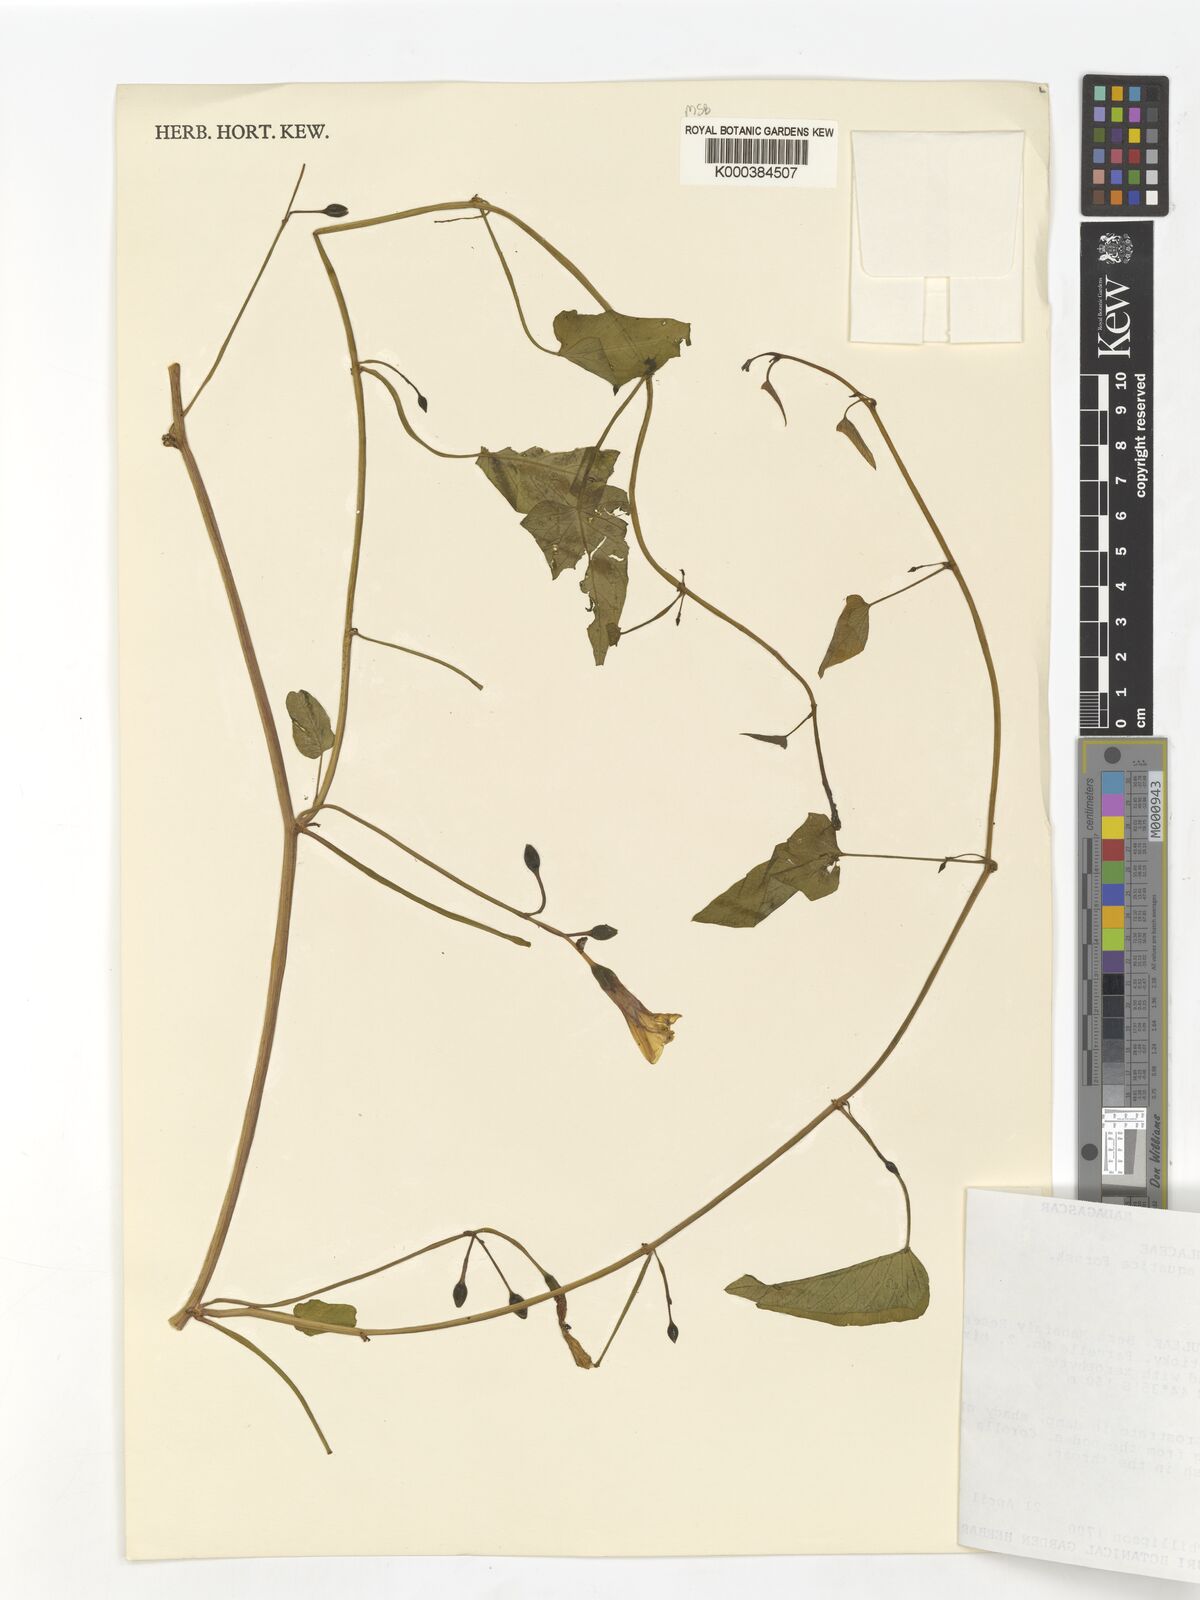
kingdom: Plantae
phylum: Tracheophyta
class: Magnoliopsida
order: Solanales
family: Convolvulaceae
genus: Ipomoea
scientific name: Ipomoea aquatica
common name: Swamp morning-glory
